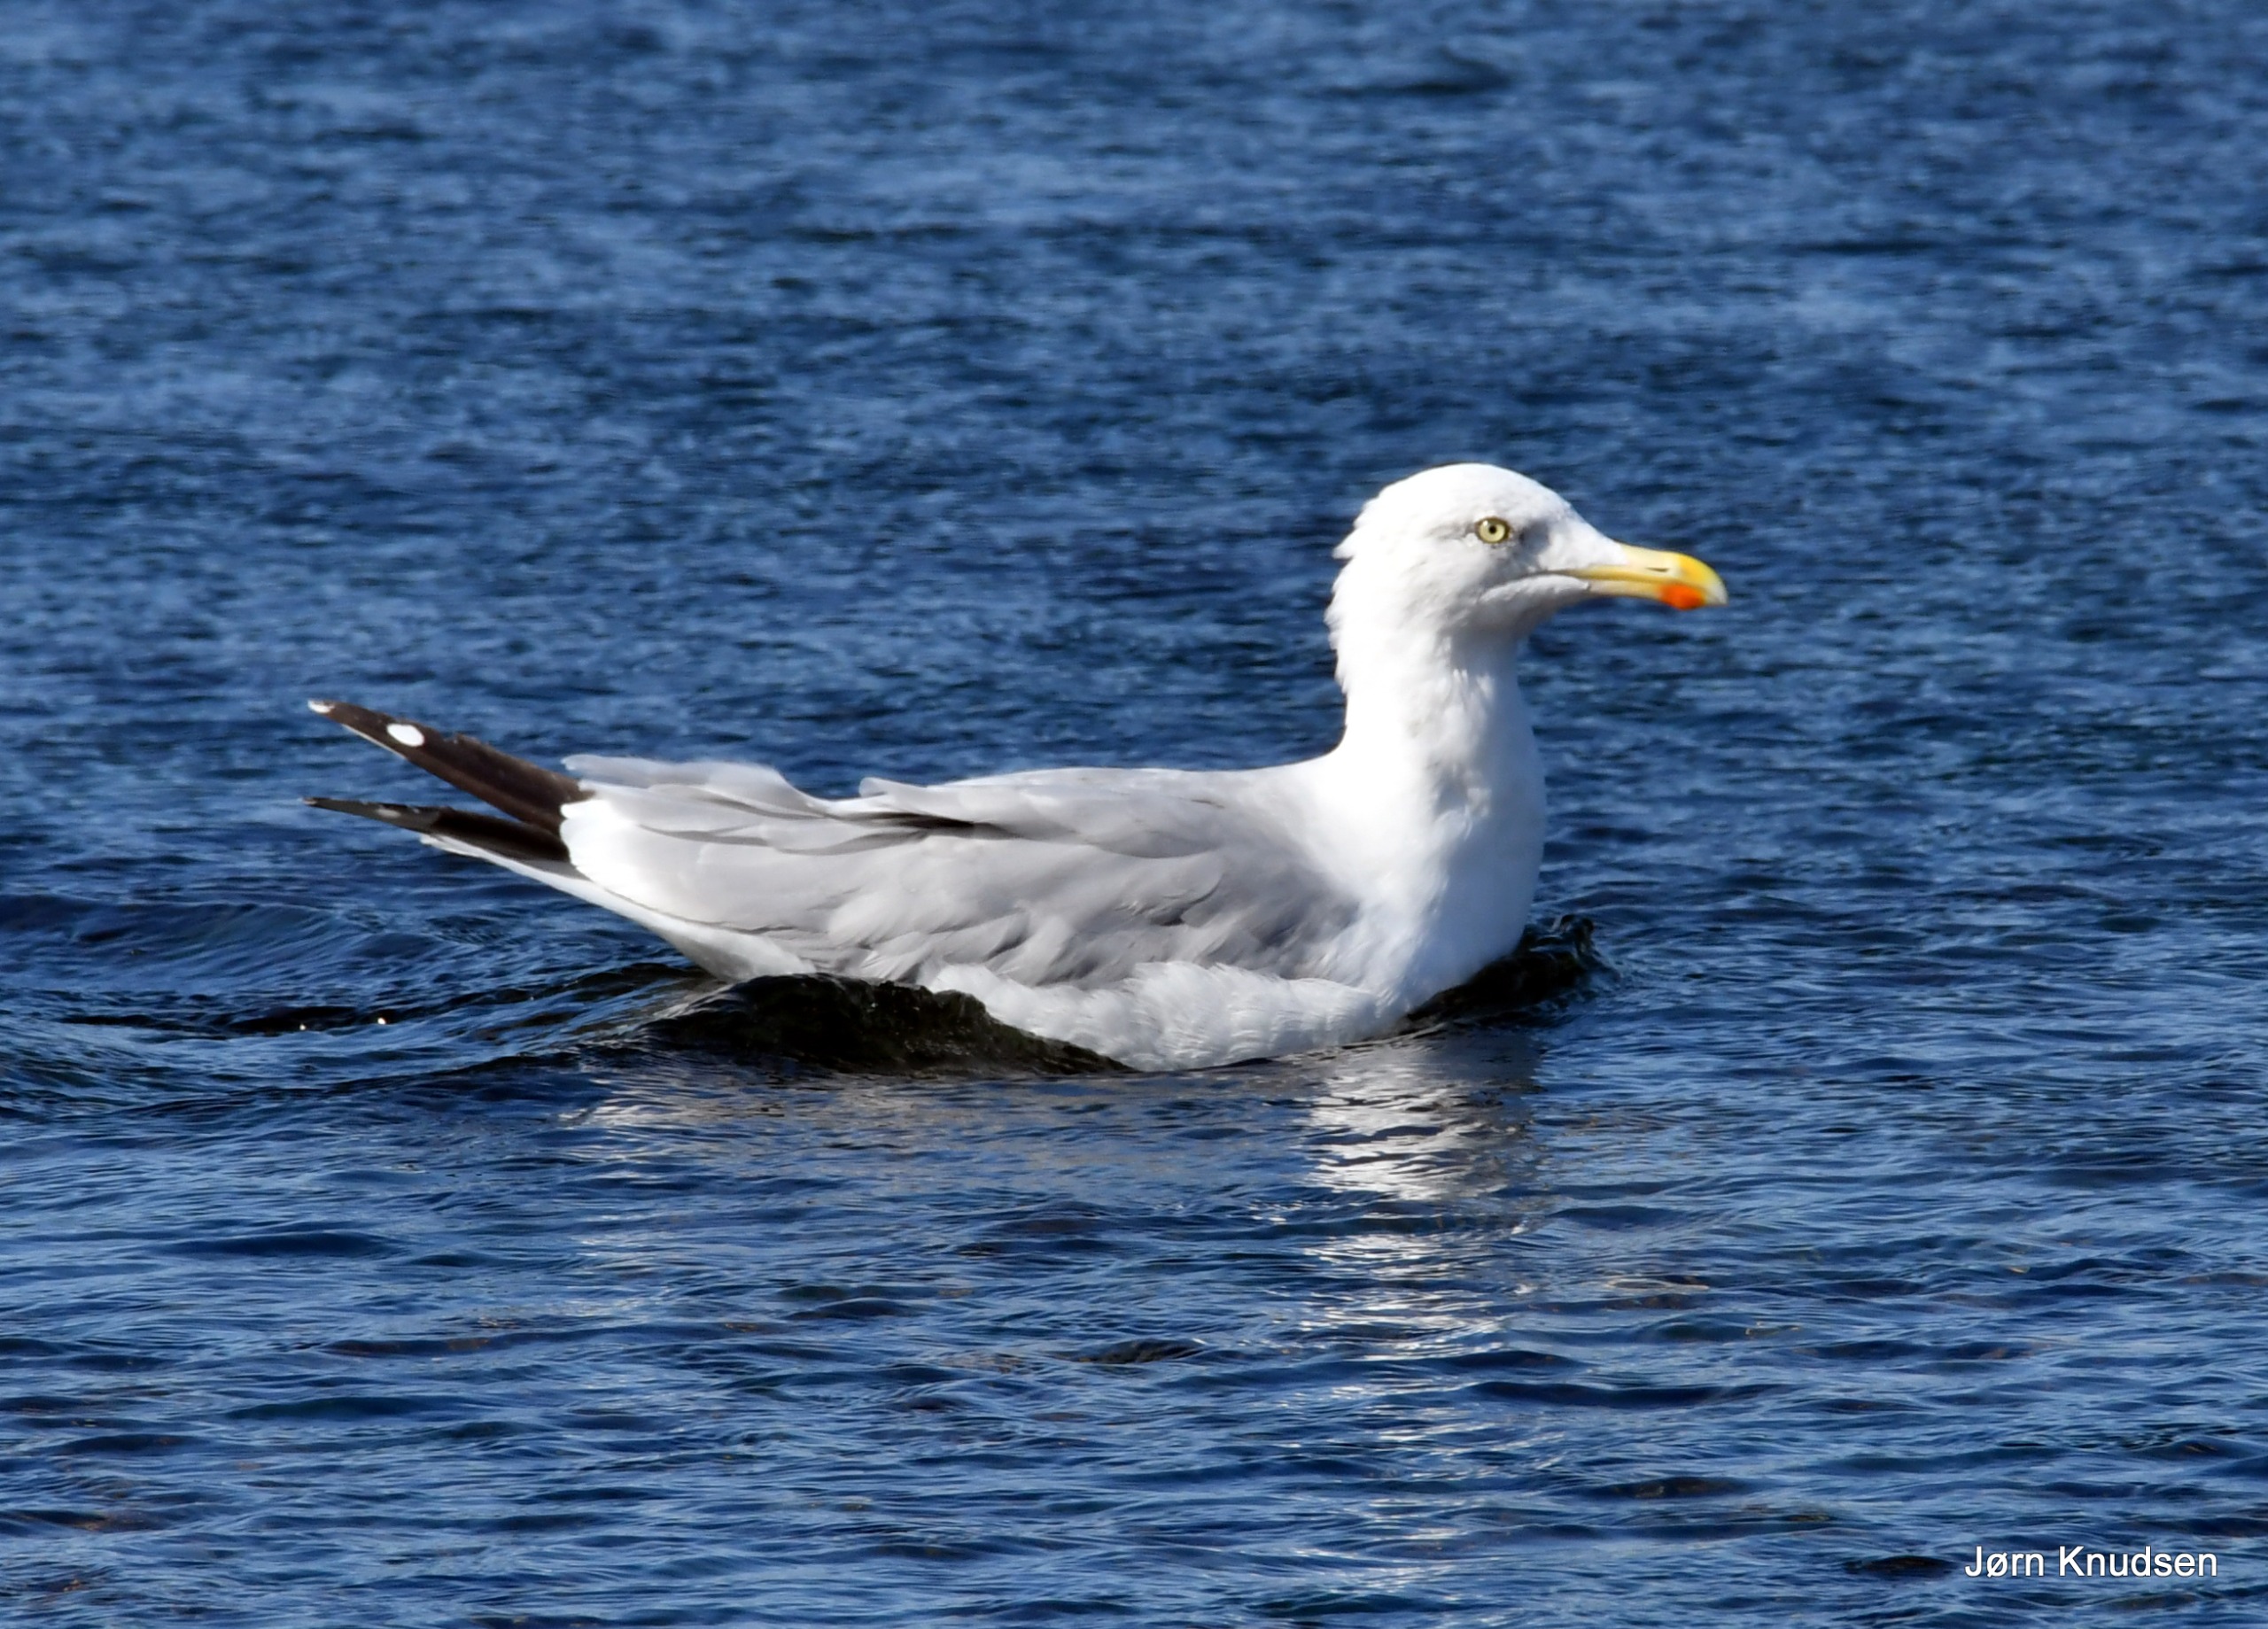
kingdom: Animalia
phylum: Chordata
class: Aves
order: Charadriiformes
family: Laridae
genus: Larus
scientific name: Larus argentatus
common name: Sølvmåge
